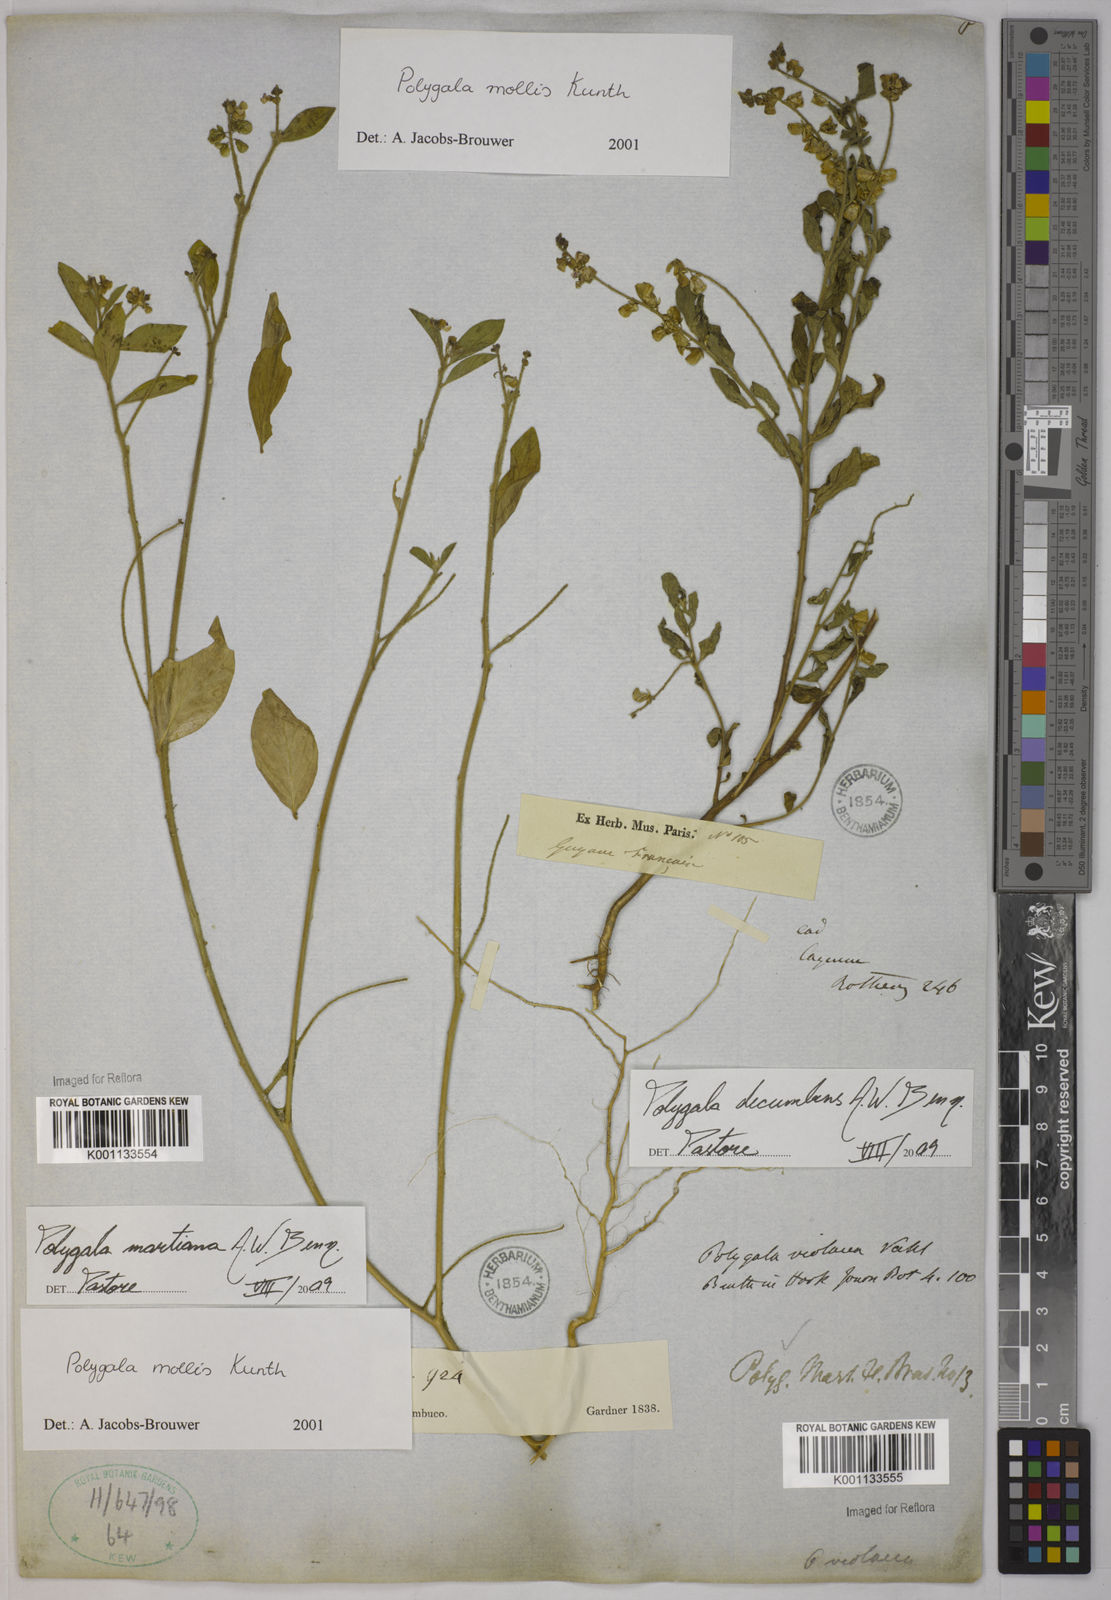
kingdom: Plantae
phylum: Tracheophyta
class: Magnoliopsida
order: Fabales
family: Polygalaceae
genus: Asemeia
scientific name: Asemeia martiana
